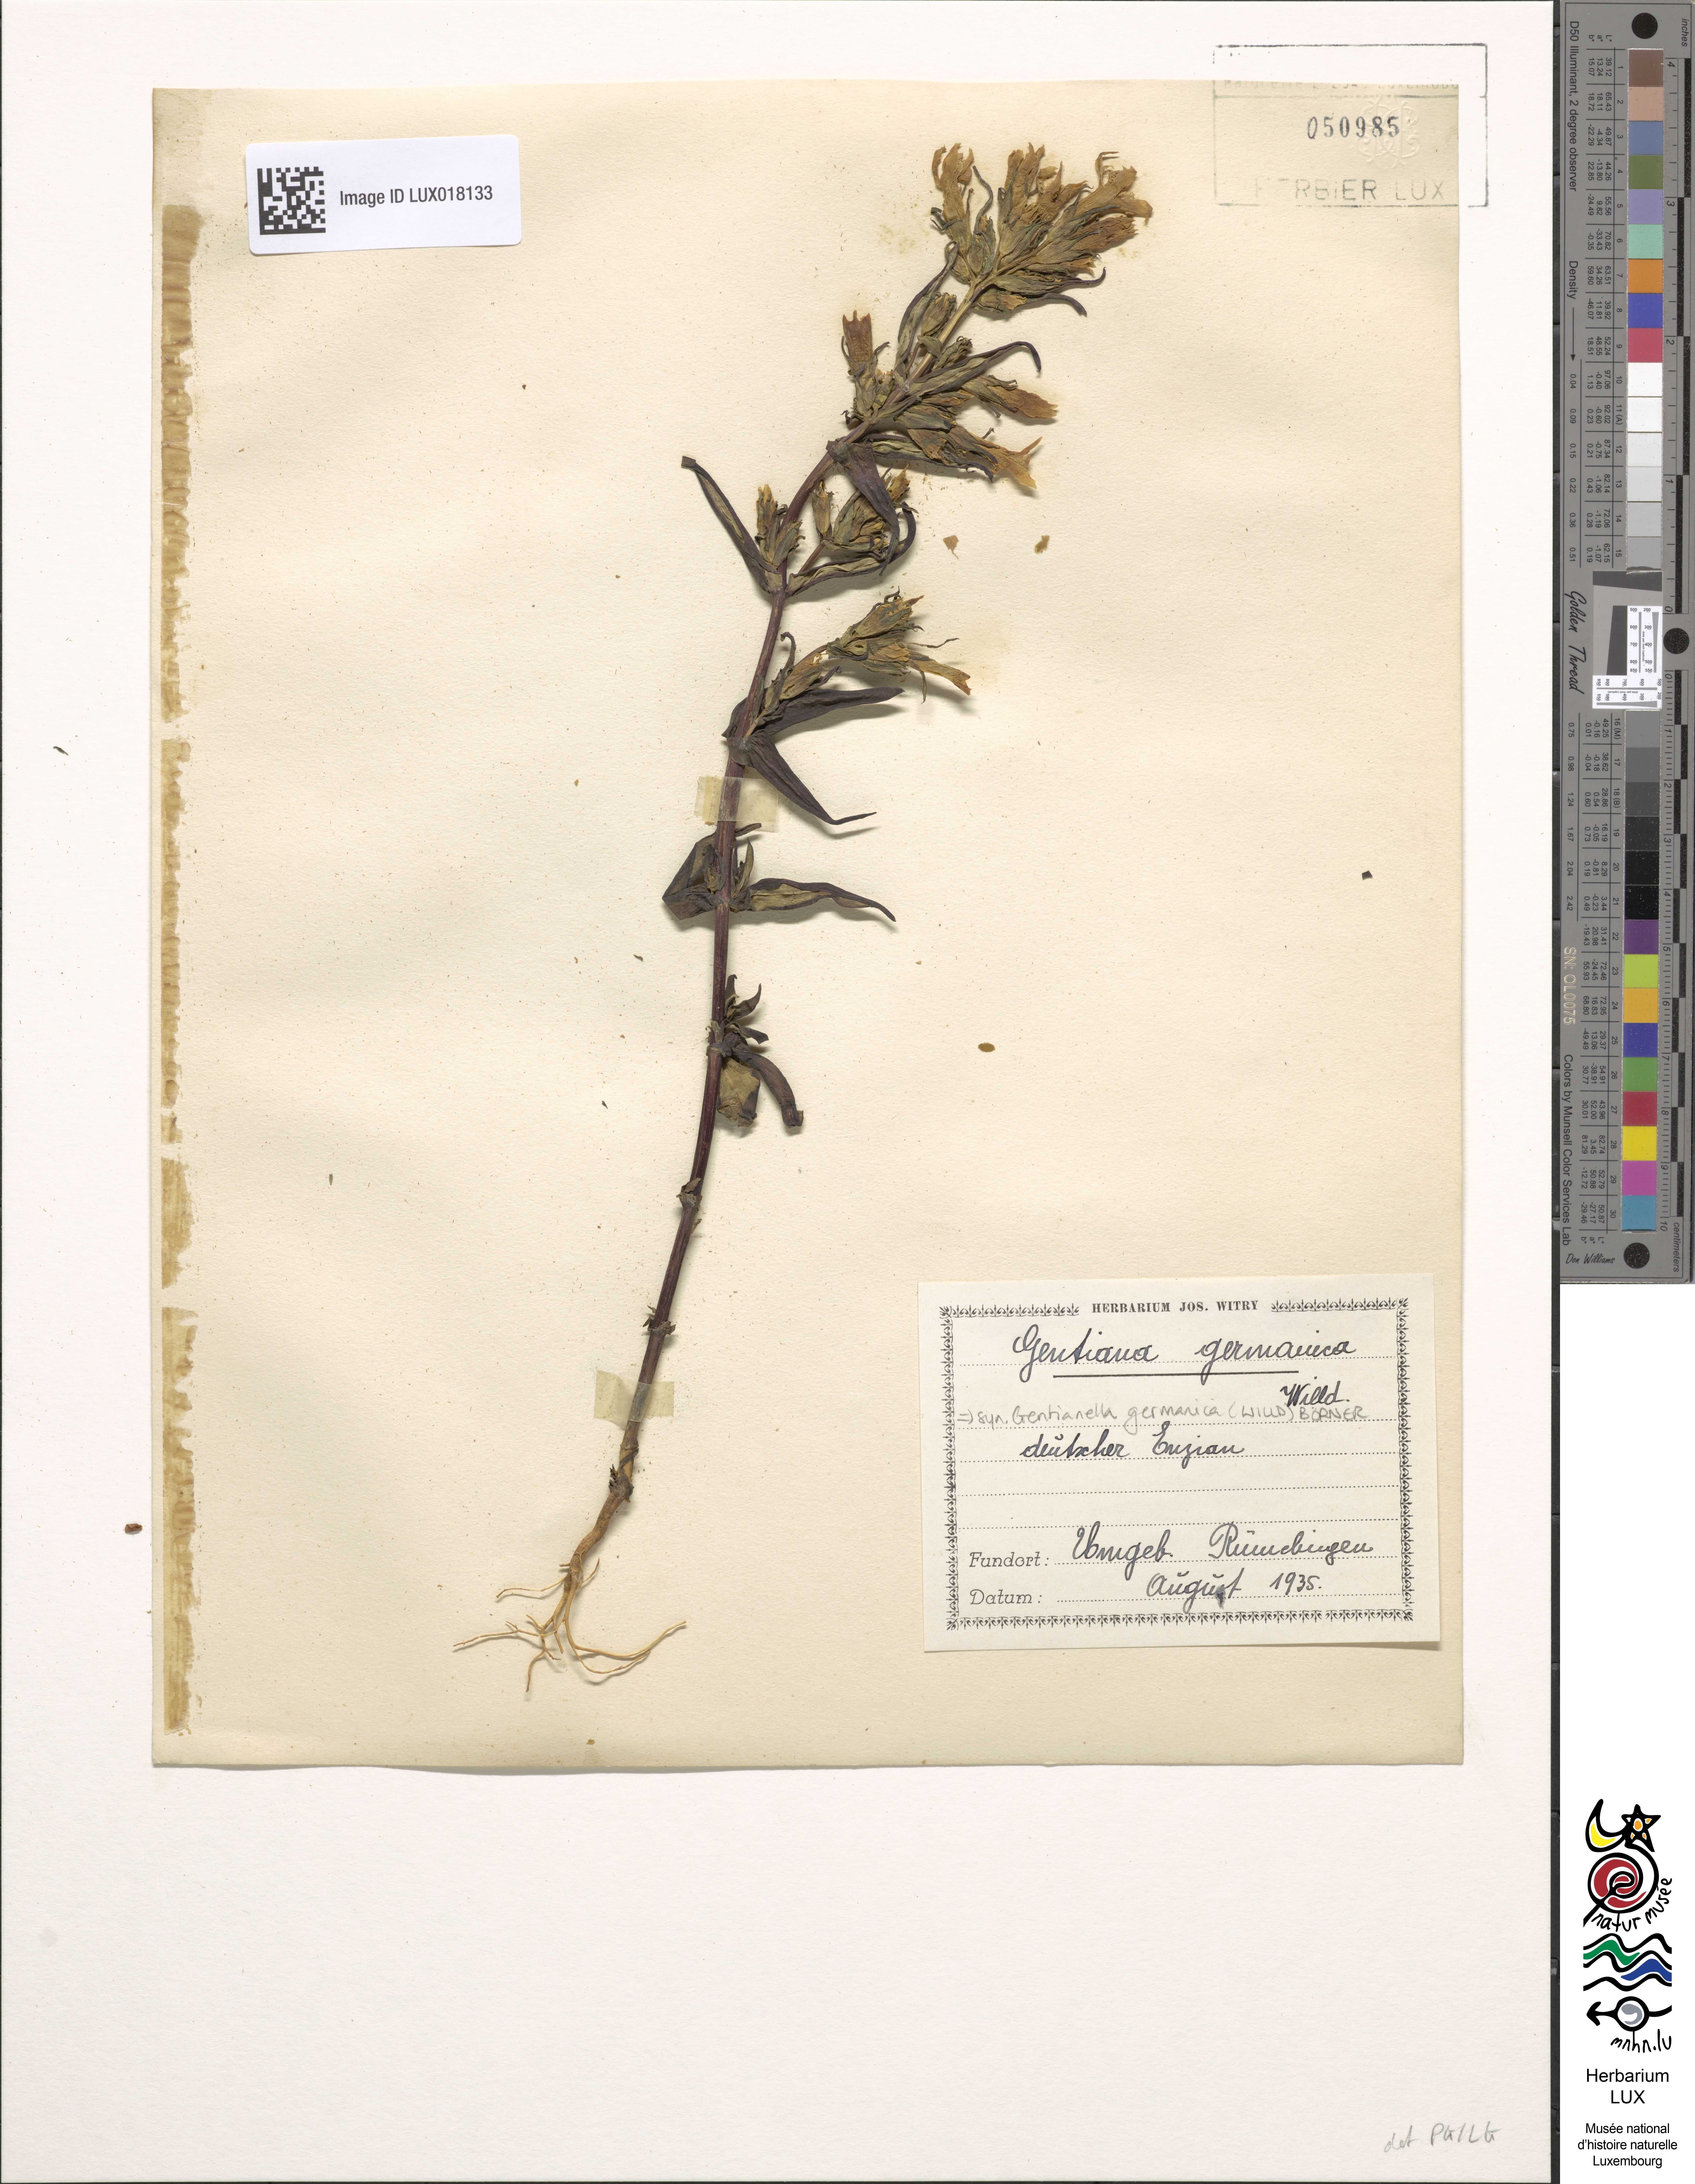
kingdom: Plantae
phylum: Tracheophyta
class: Magnoliopsida
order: Gentianales
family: Gentianaceae
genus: Gentianella
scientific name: Gentianella germanica
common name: Chiltern-gentian
